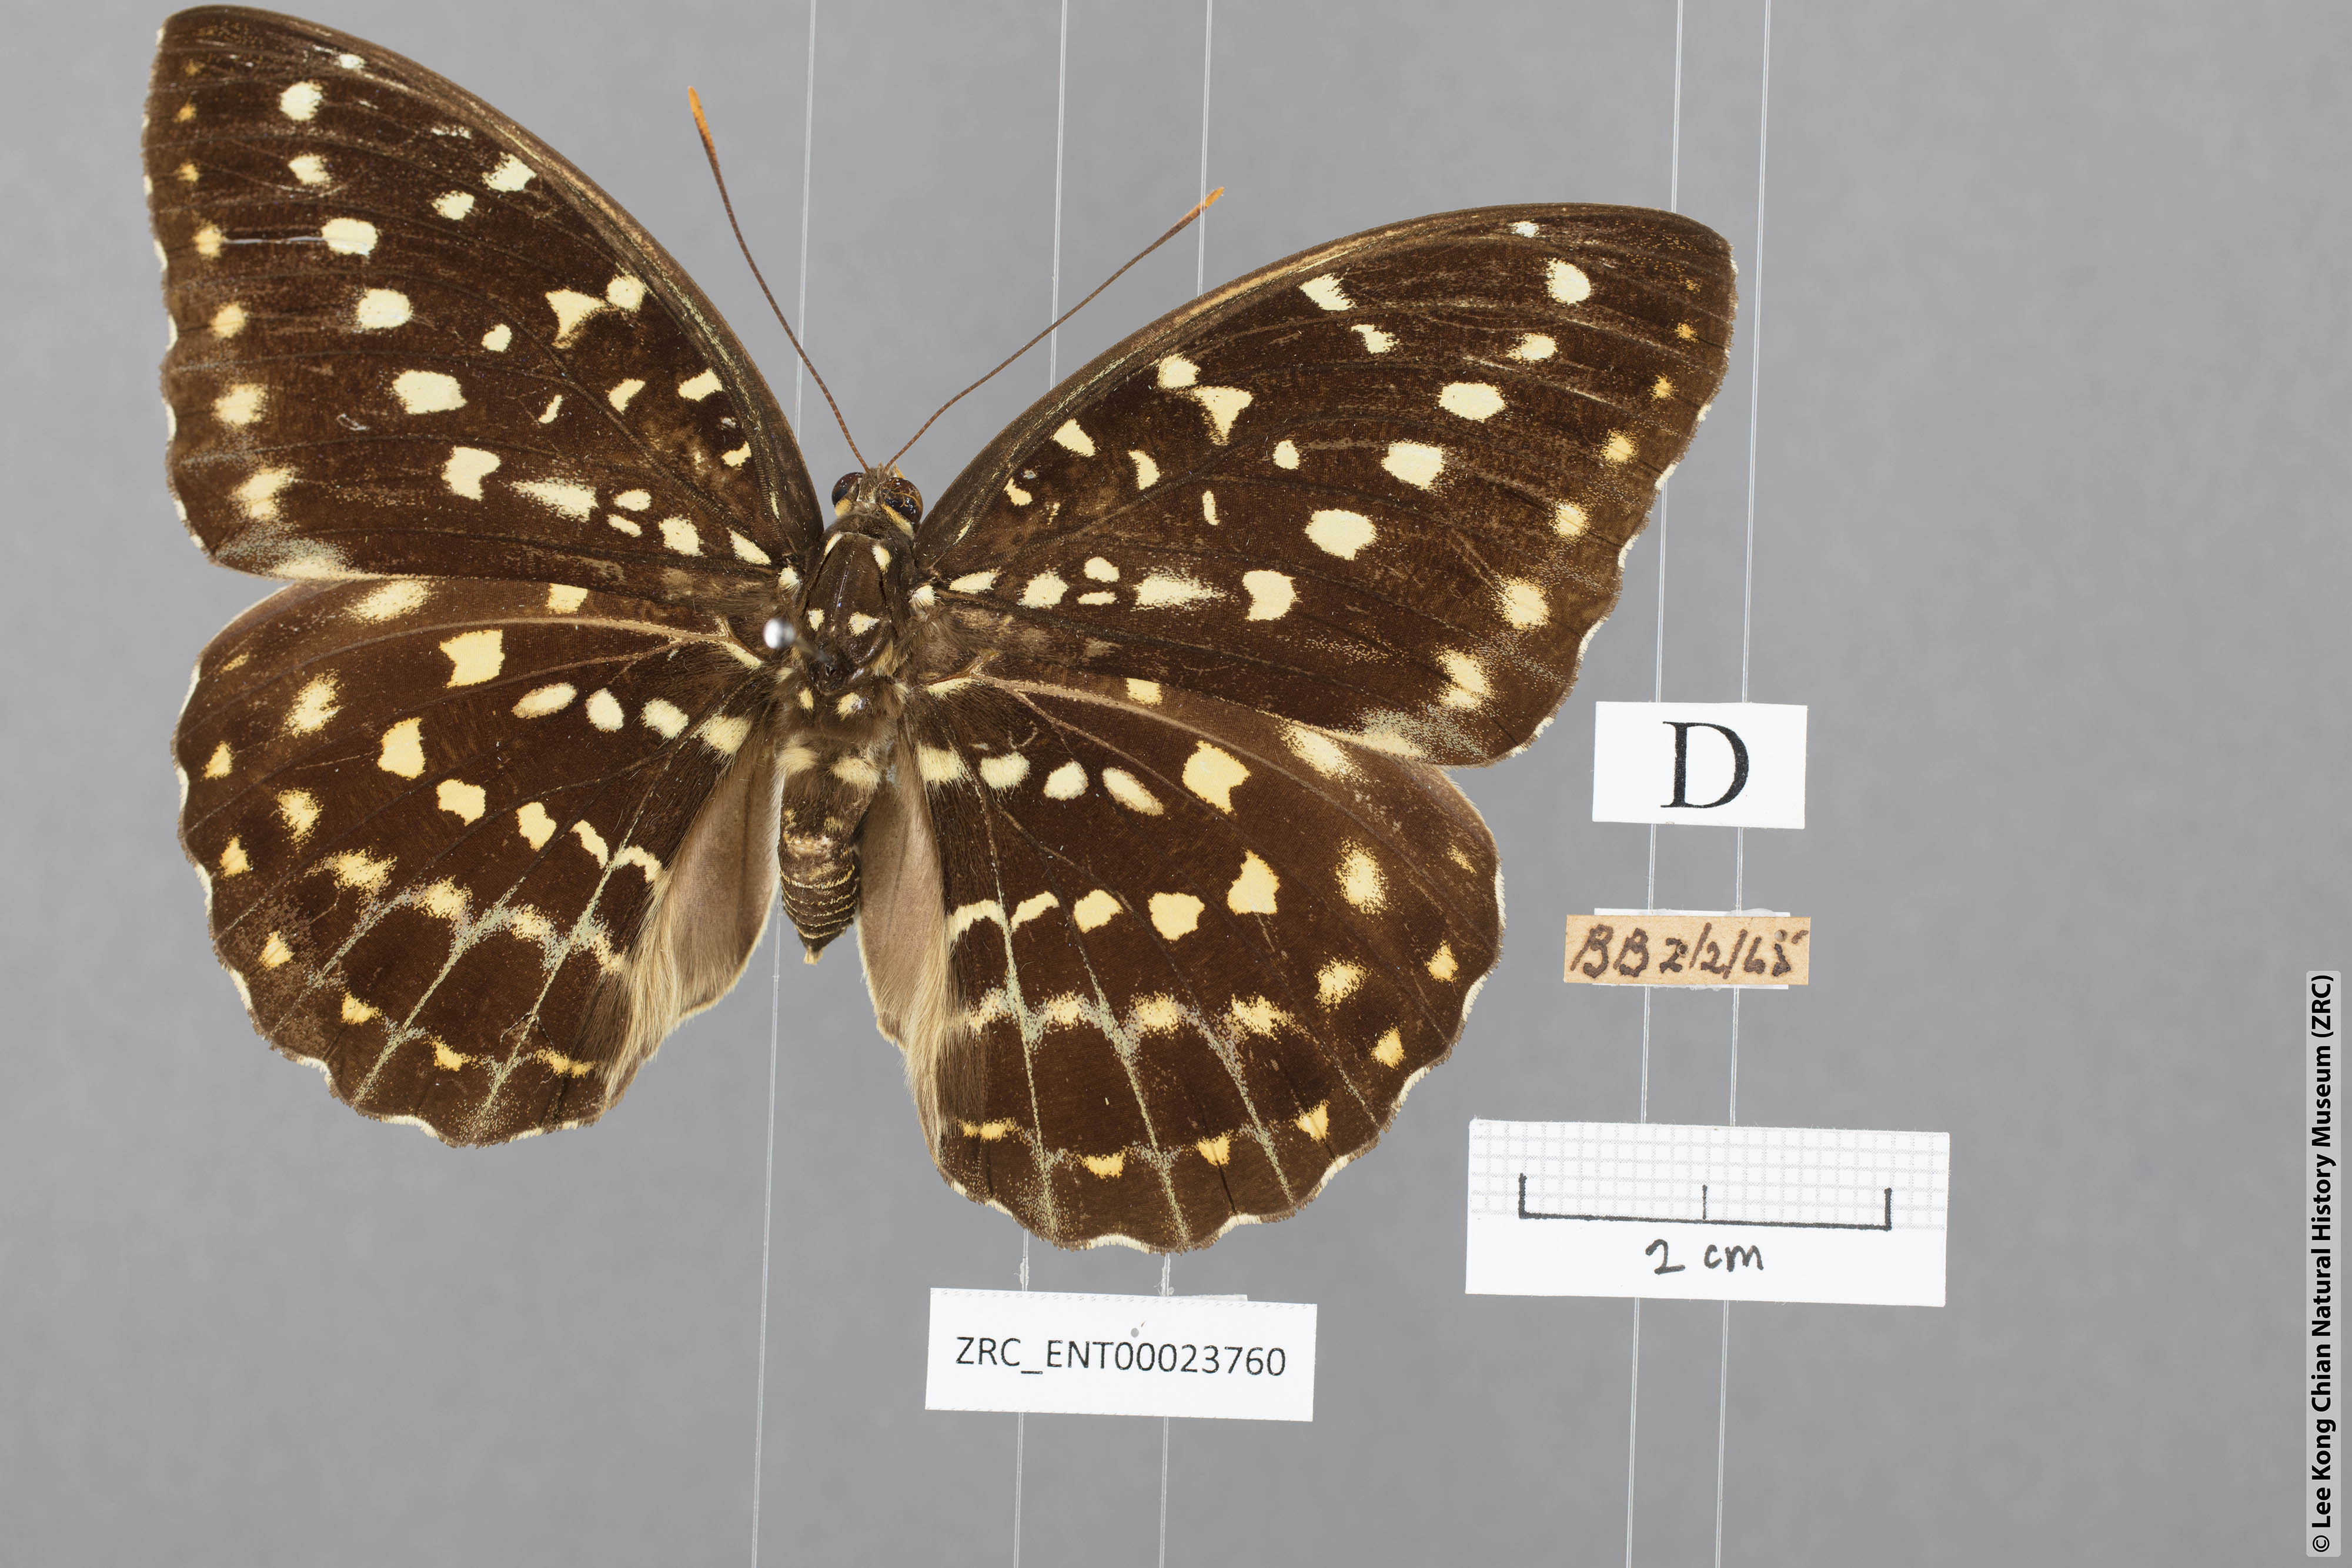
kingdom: Animalia
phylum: Arthropoda
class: Insecta
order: Lepidoptera
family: Nymphalidae
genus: Lexias
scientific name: Lexias pardalis
